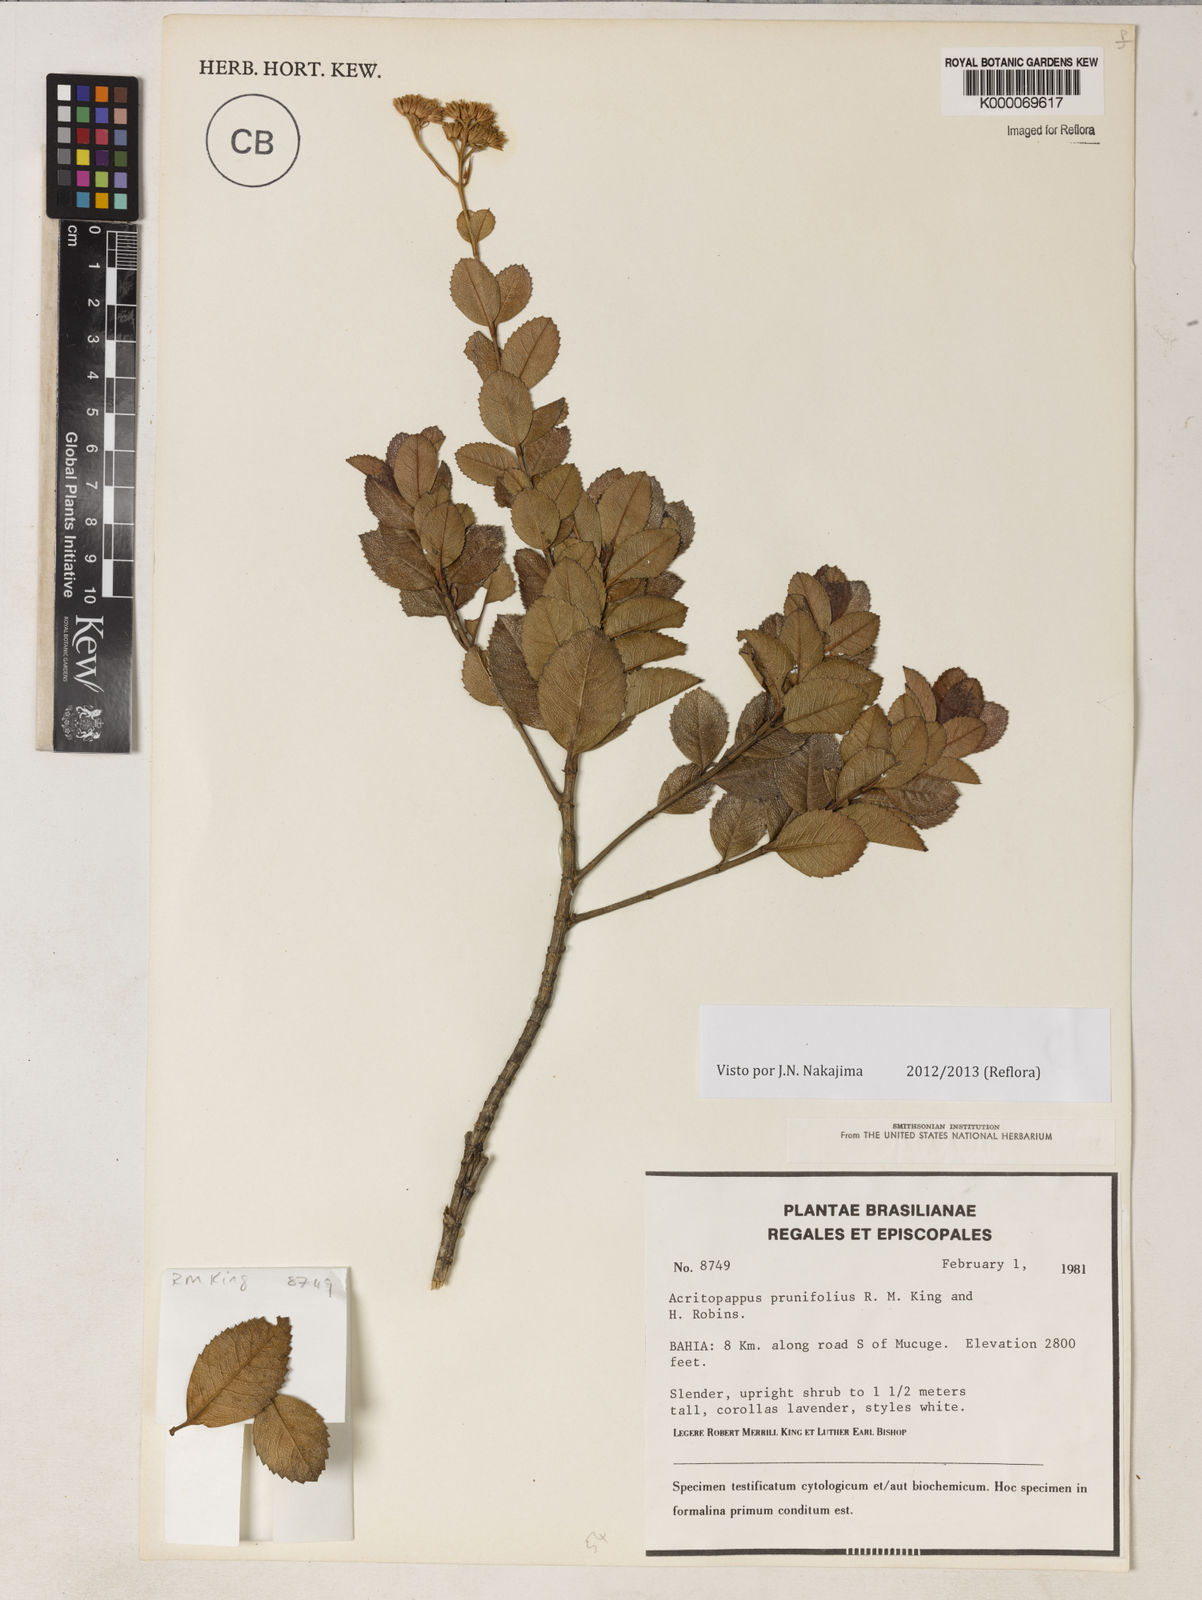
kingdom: Plantae
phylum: Tracheophyta
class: Magnoliopsida
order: Asterales
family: Asteraceae
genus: Acritopappus
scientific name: Acritopappus prunifolius
